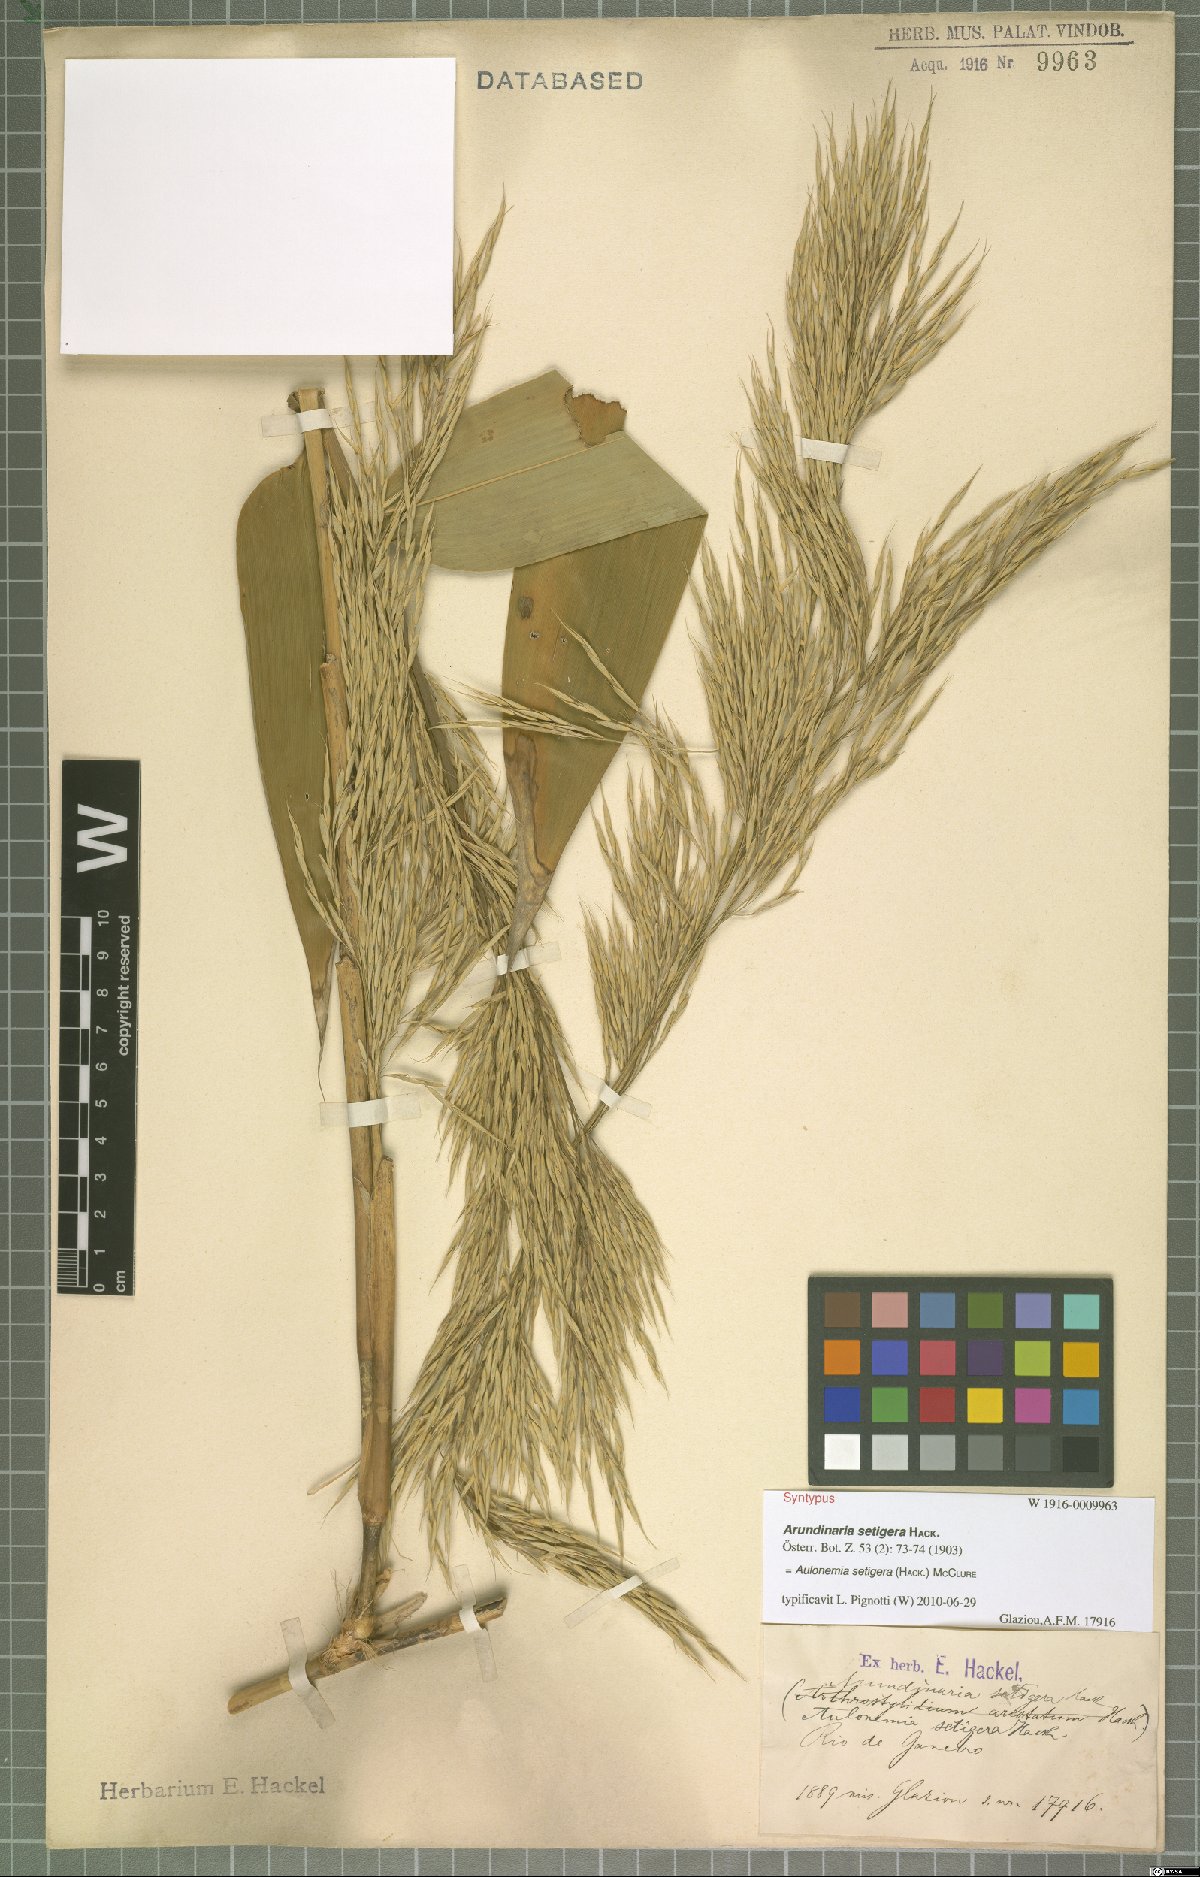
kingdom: Plantae
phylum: Tracheophyta
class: Liliopsida
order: Poales
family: Poaceae
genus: Aulonemia
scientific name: Aulonemia setigera
